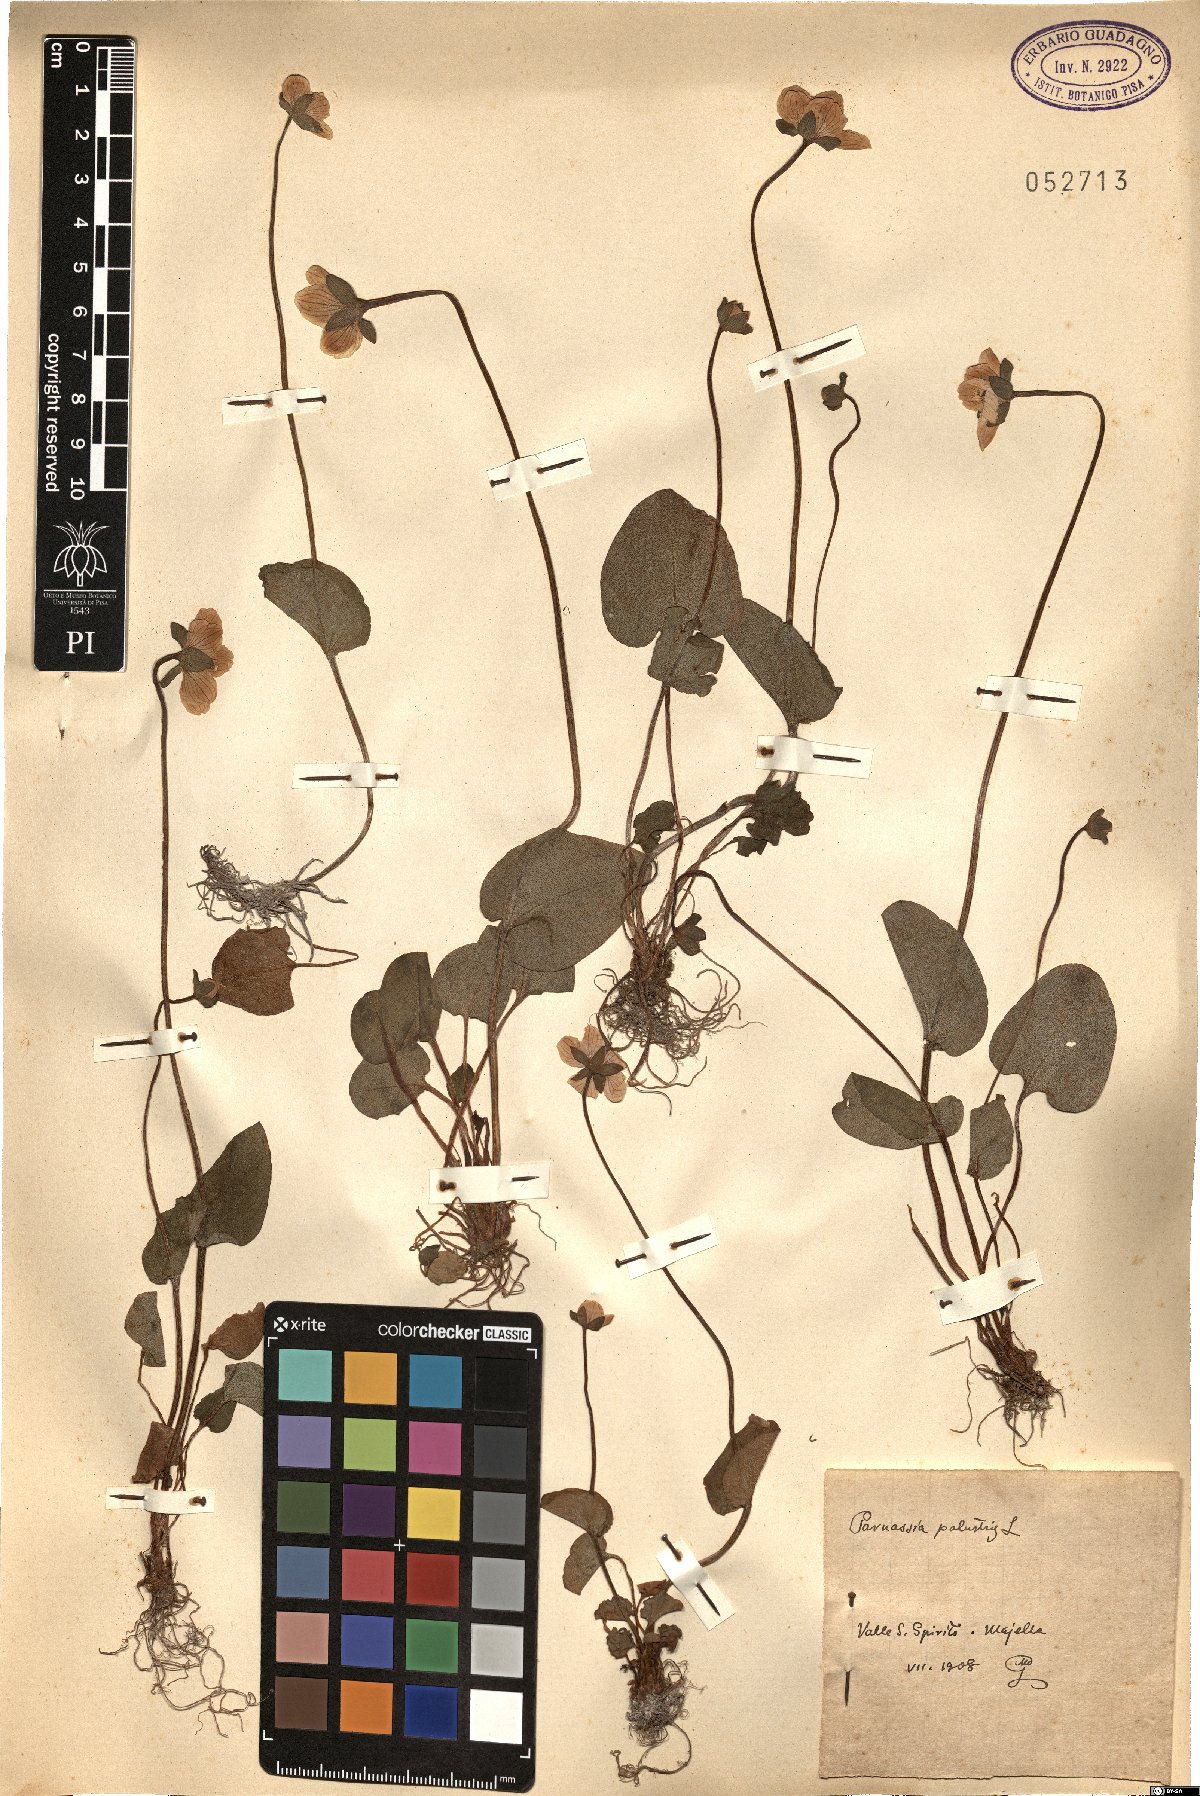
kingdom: Plantae
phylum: Tracheophyta
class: Magnoliopsida
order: Celastrales
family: Parnassiaceae
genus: Parnassia
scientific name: Parnassia palustris
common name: Grass-of-parnassus
